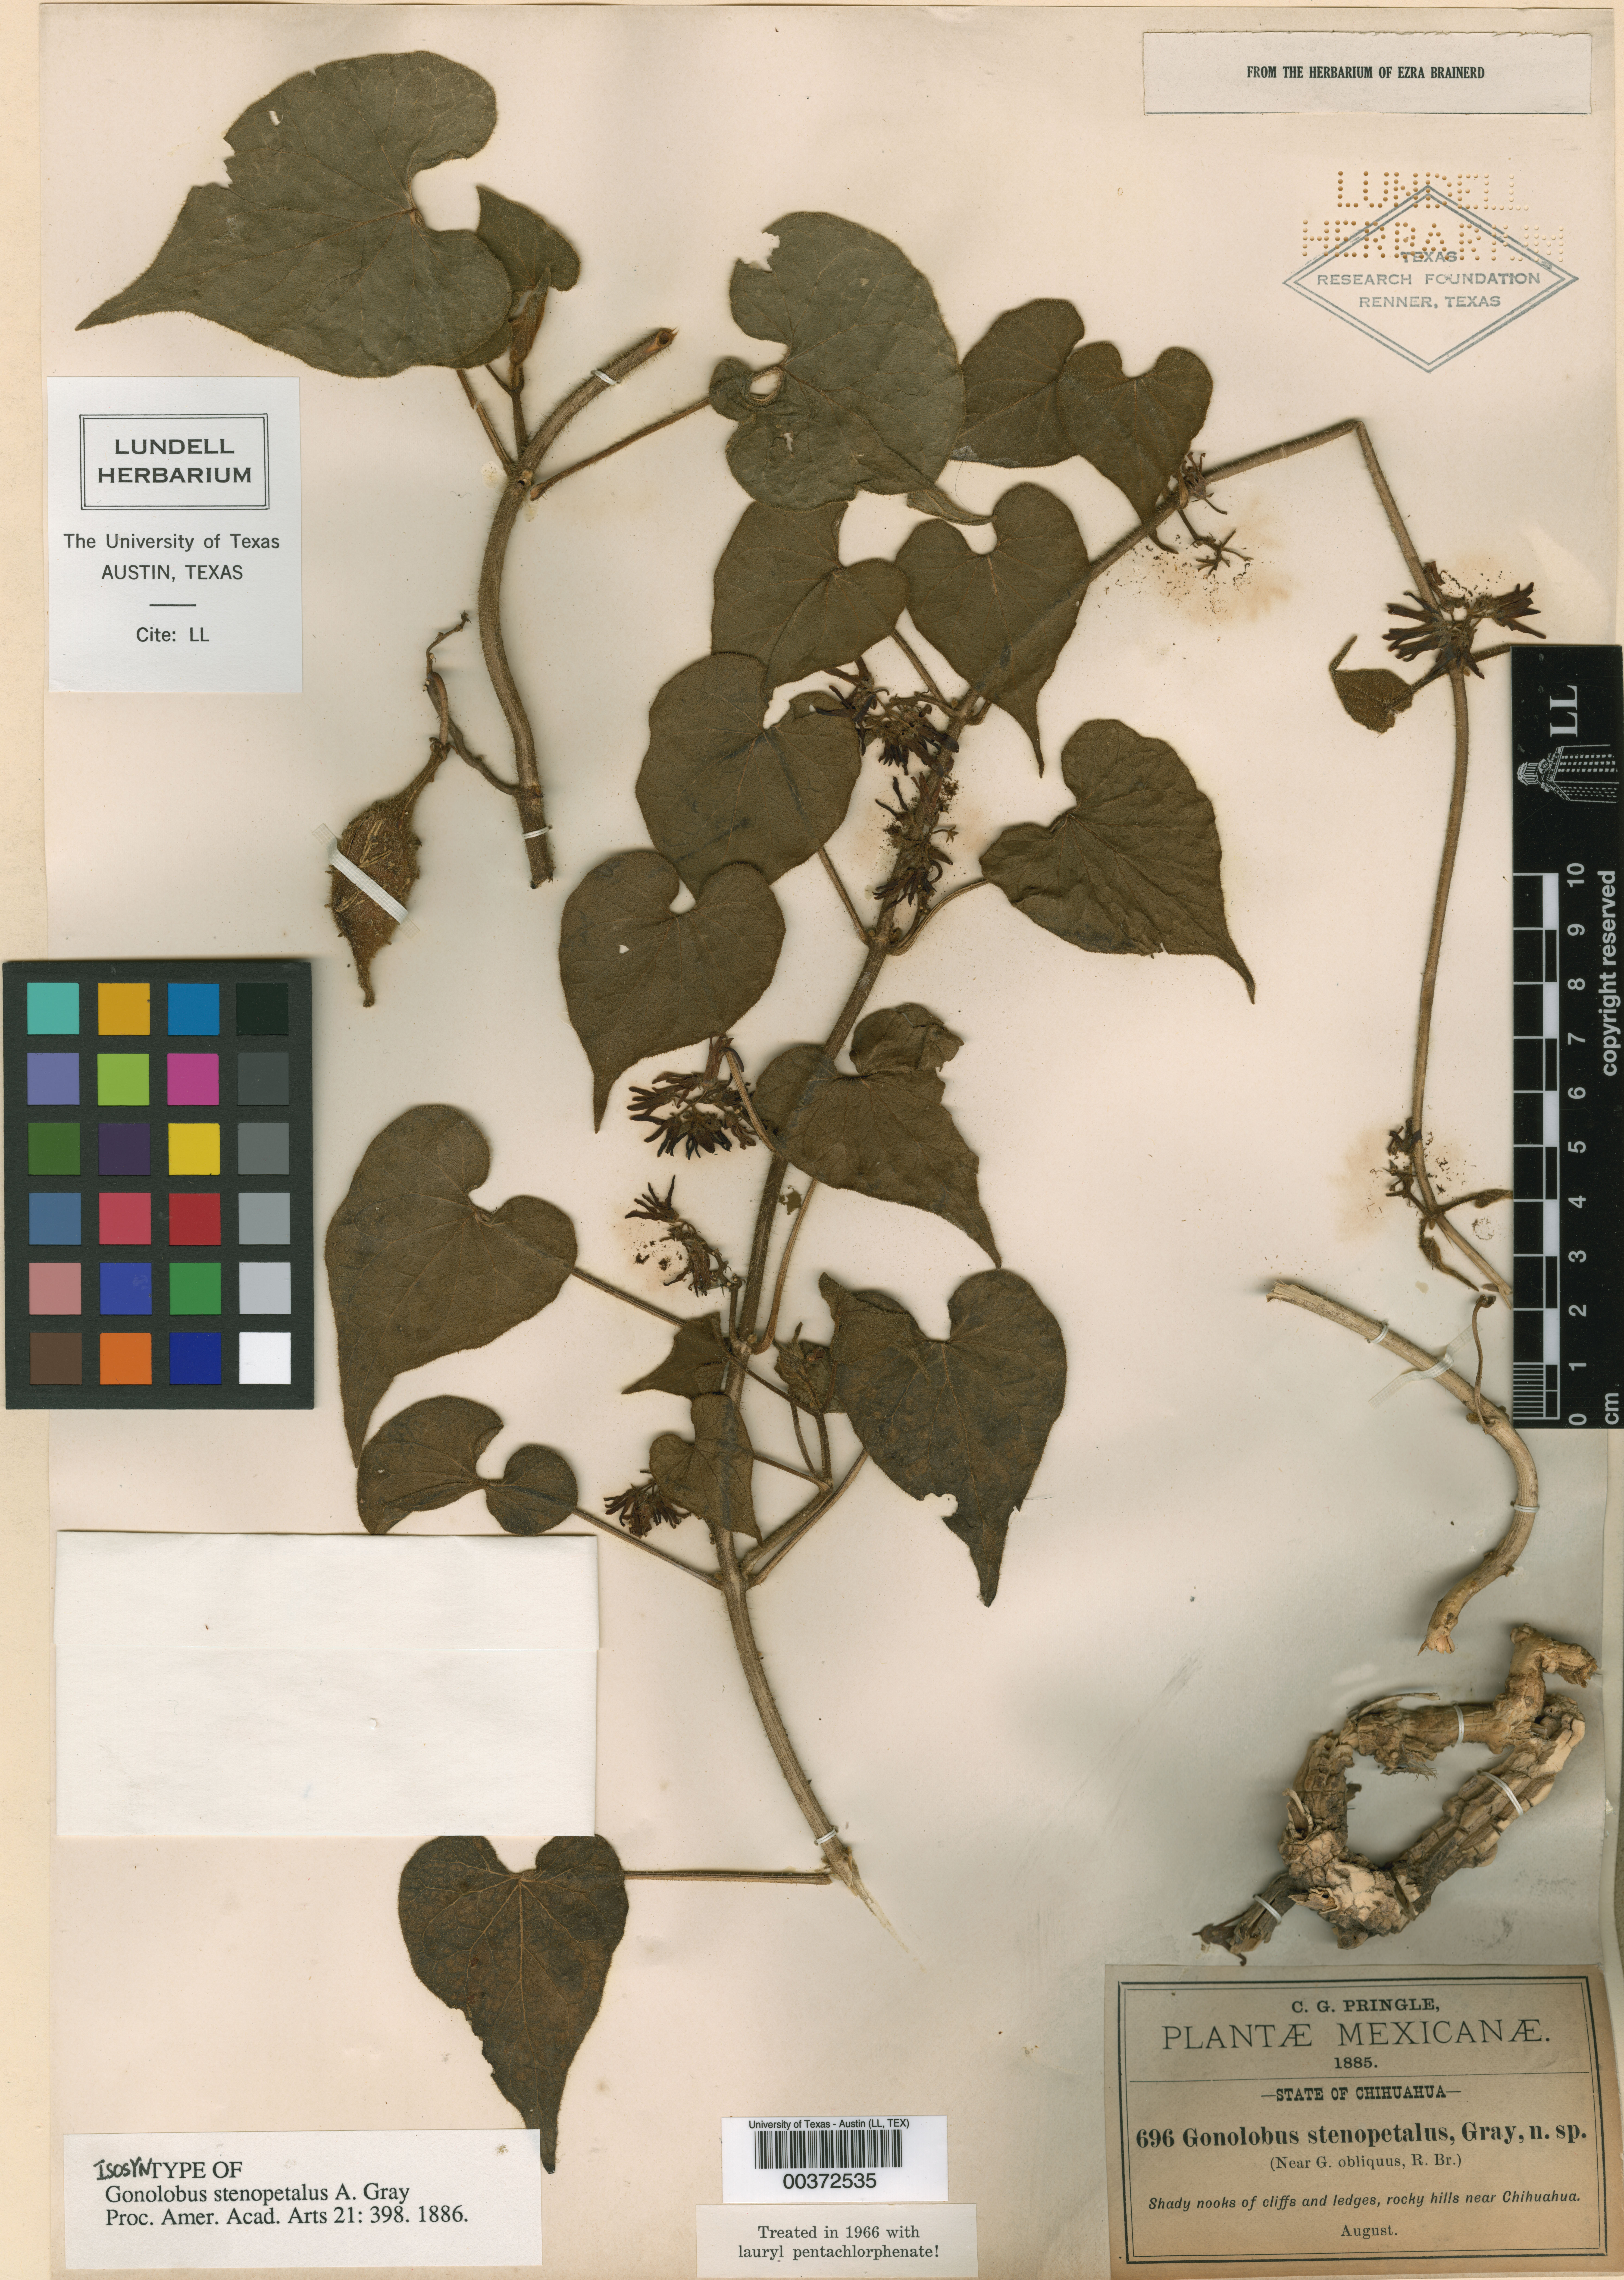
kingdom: Plantae
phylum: Tracheophyta
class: Magnoliopsida
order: Gentianales
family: Apocynaceae
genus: Matelea
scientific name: Matelea johnstonii
